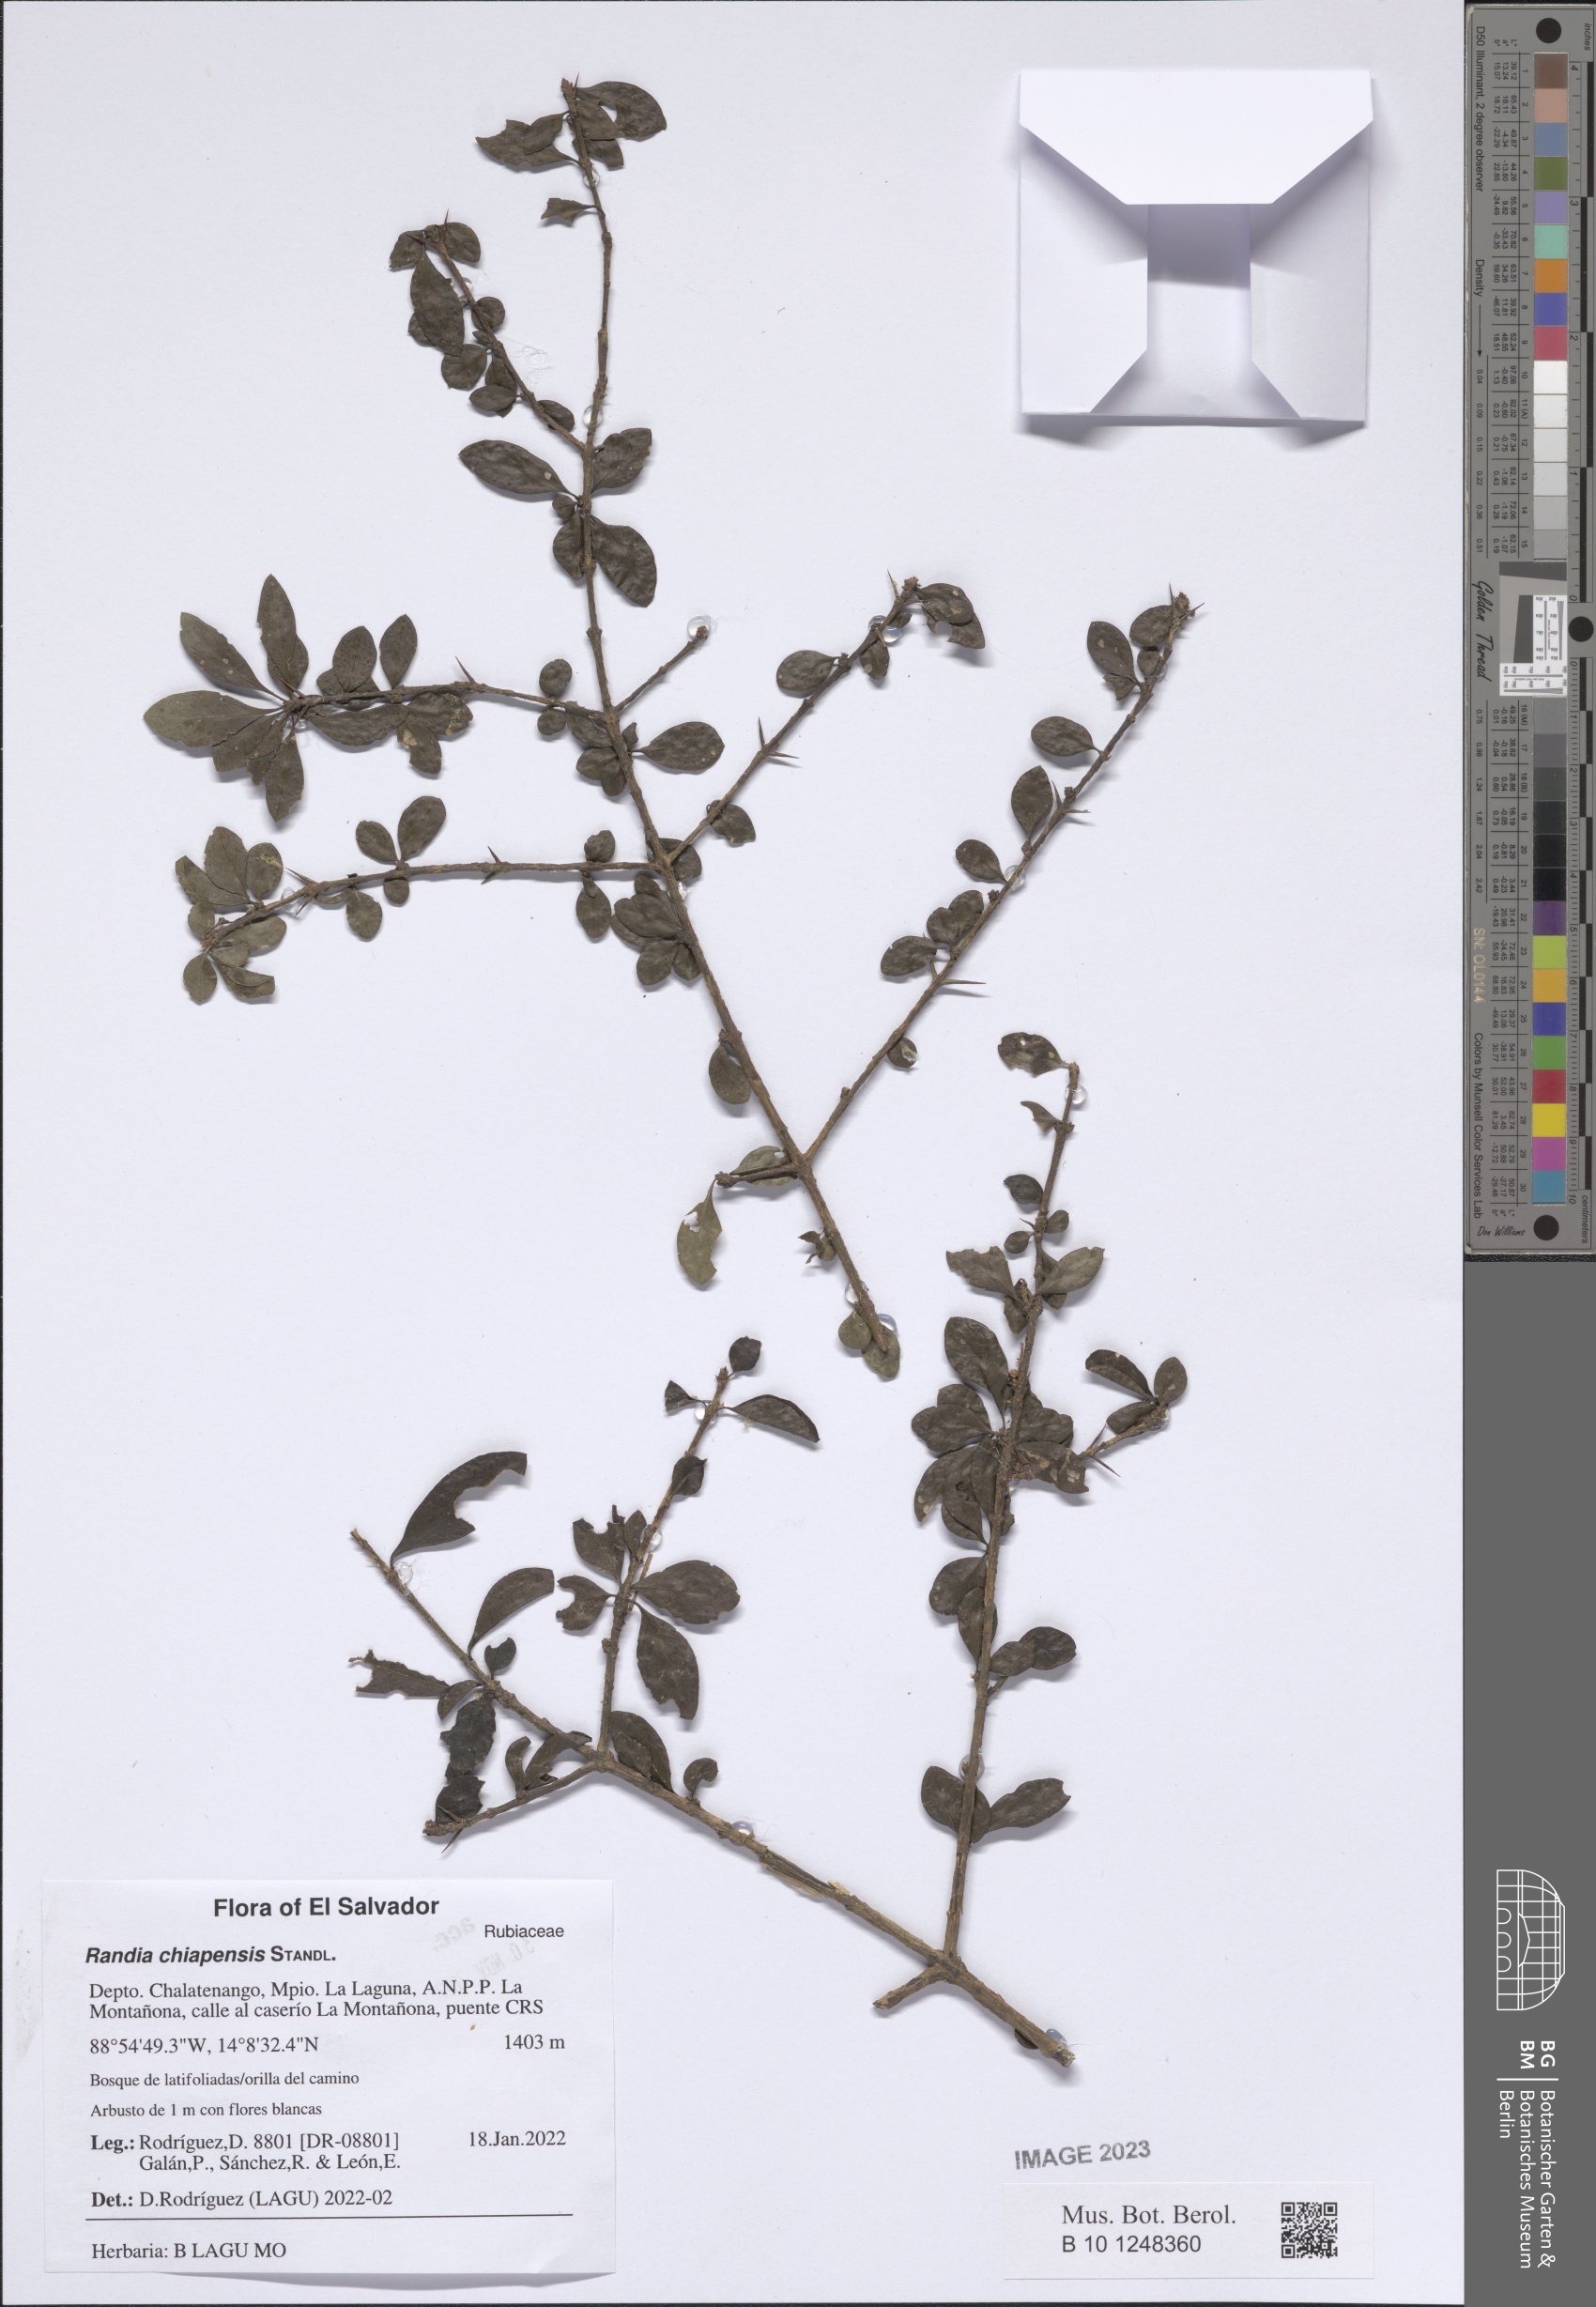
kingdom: Plantae
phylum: Tracheophyta
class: Magnoliopsida
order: Gentianales
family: Rubiaceae
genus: Randia
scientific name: Randia chiapensis
